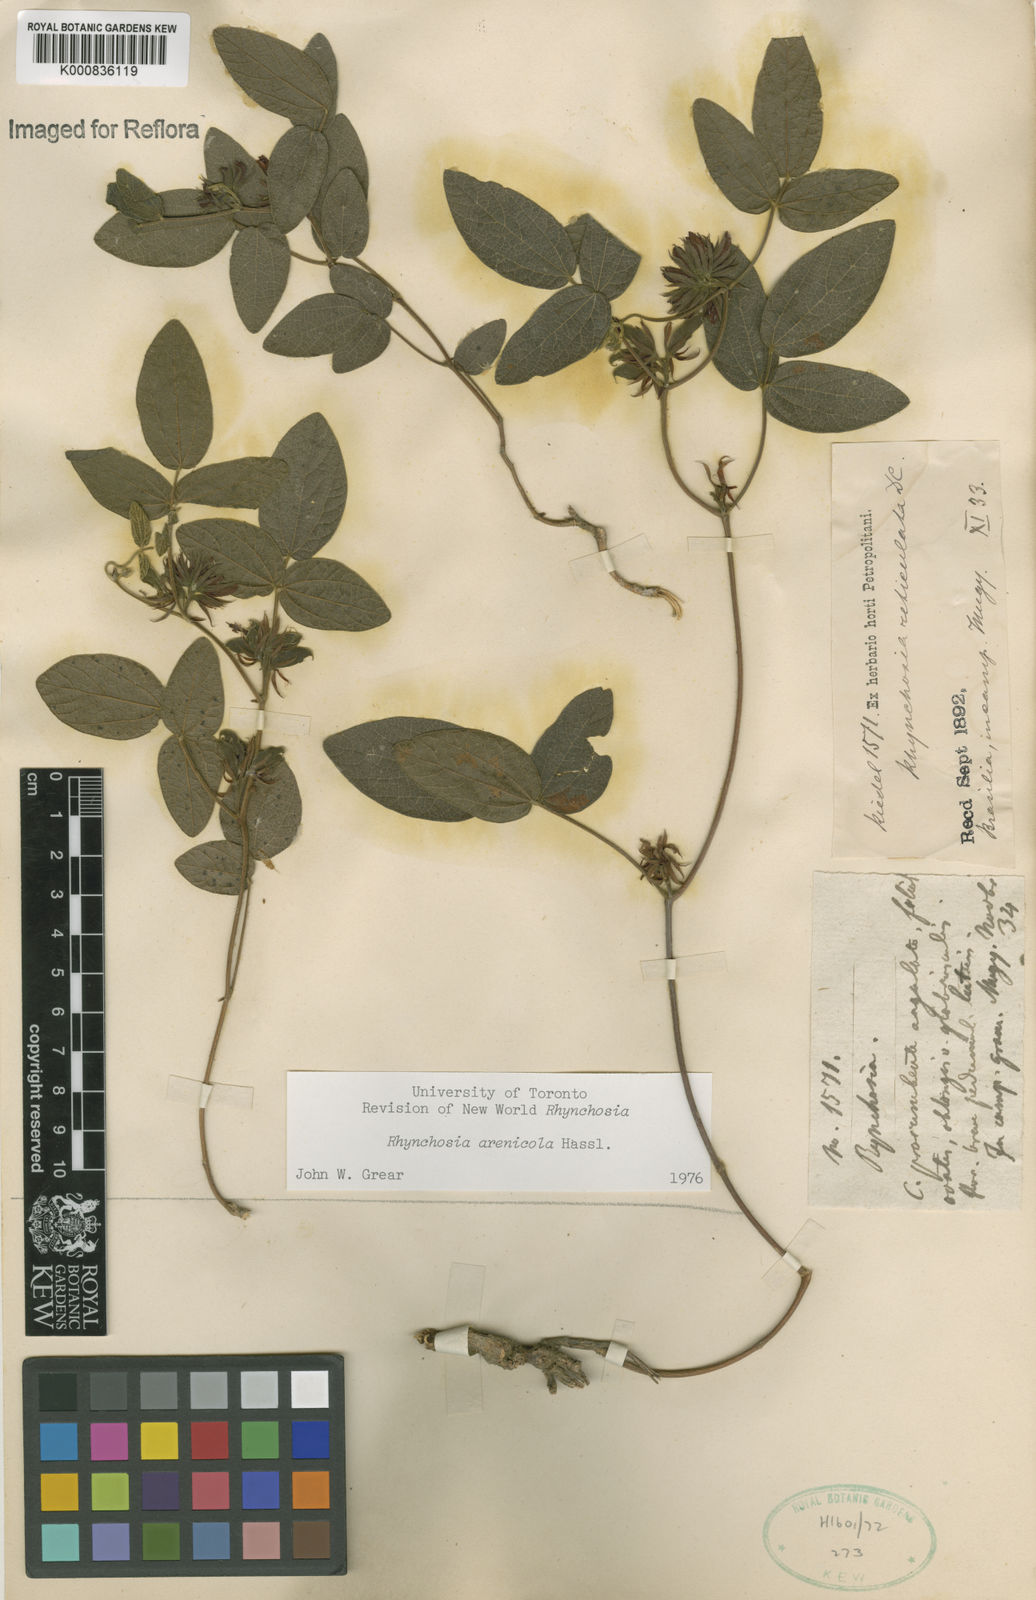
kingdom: Plantae
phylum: Tracheophyta
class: Magnoliopsida
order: Fabales
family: Fabaceae
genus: Rhynchosia
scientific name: Rhynchosia arenicola
